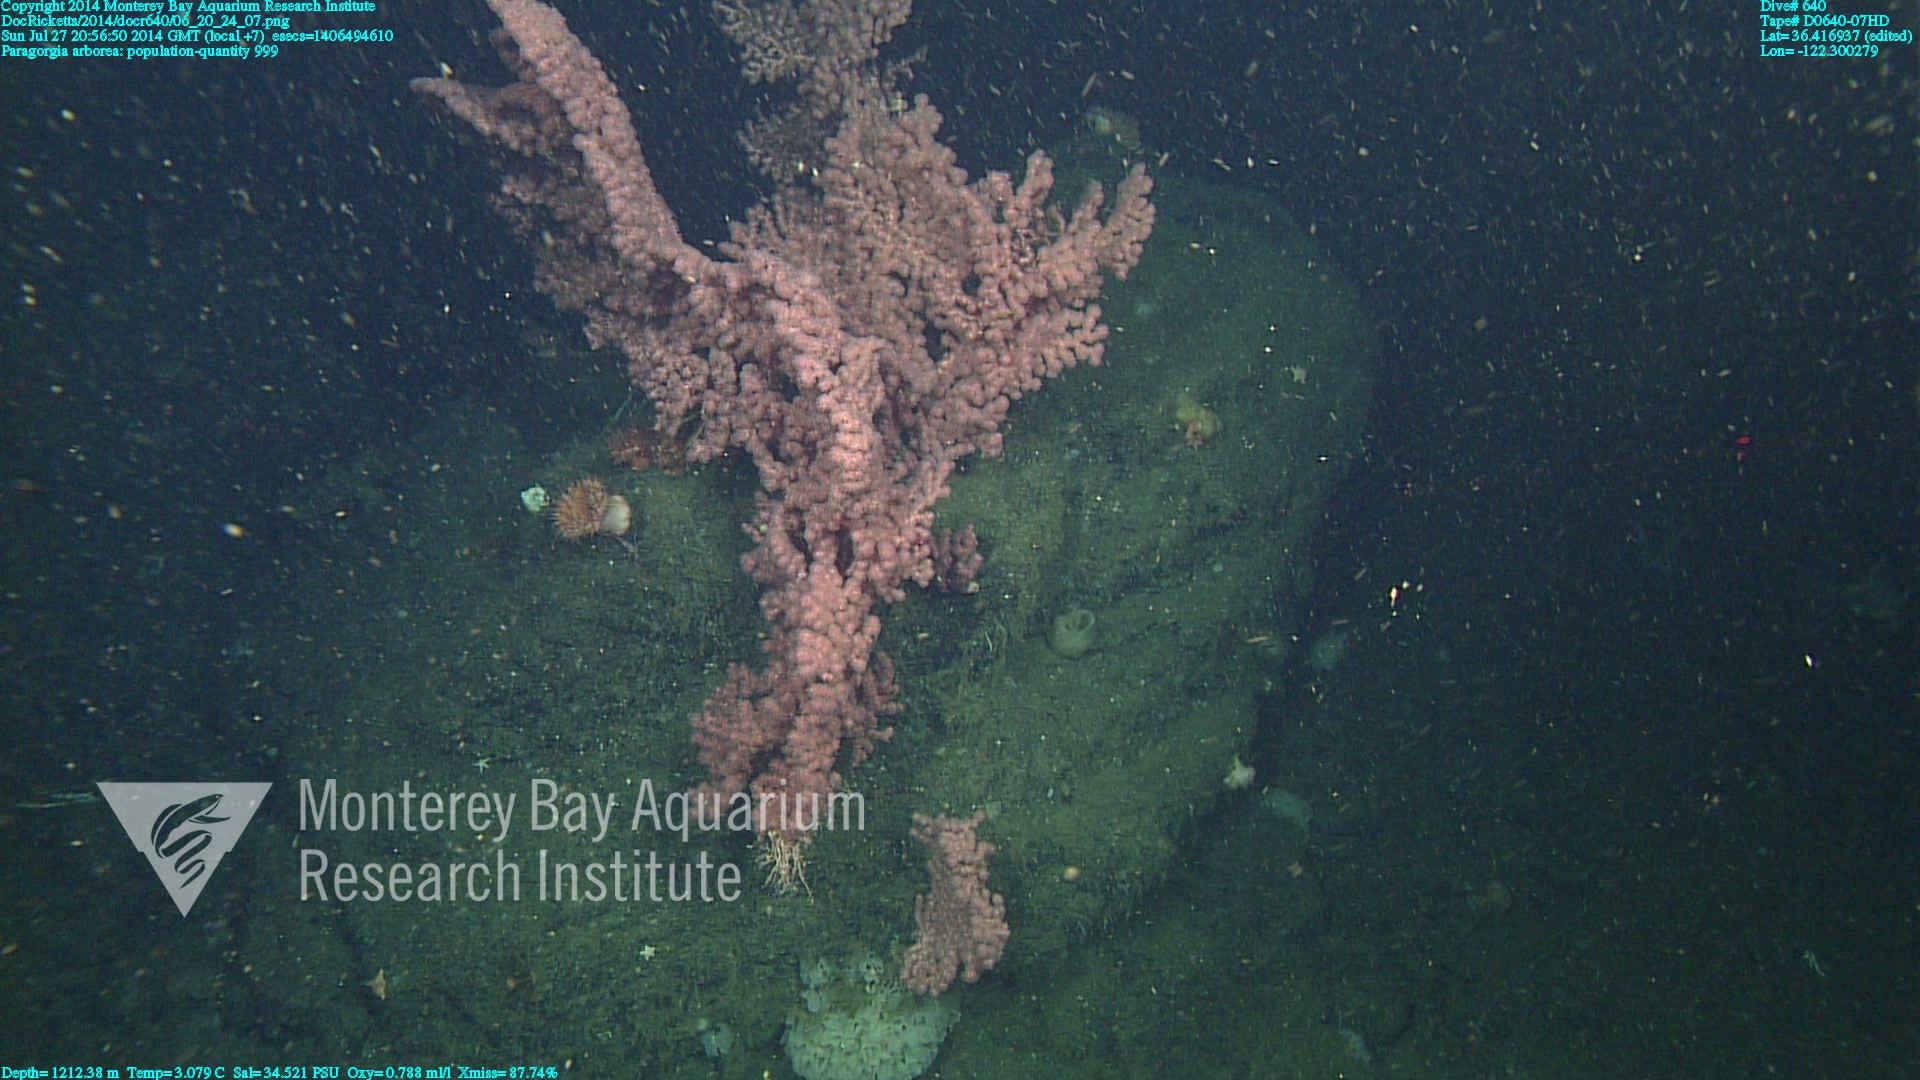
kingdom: Animalia
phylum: Cnidaria
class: Anthozoa
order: Scleralcyonacea
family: Coralliidae
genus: Paragorgia
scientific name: Paragorgia arborea
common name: Bubble gum coral
